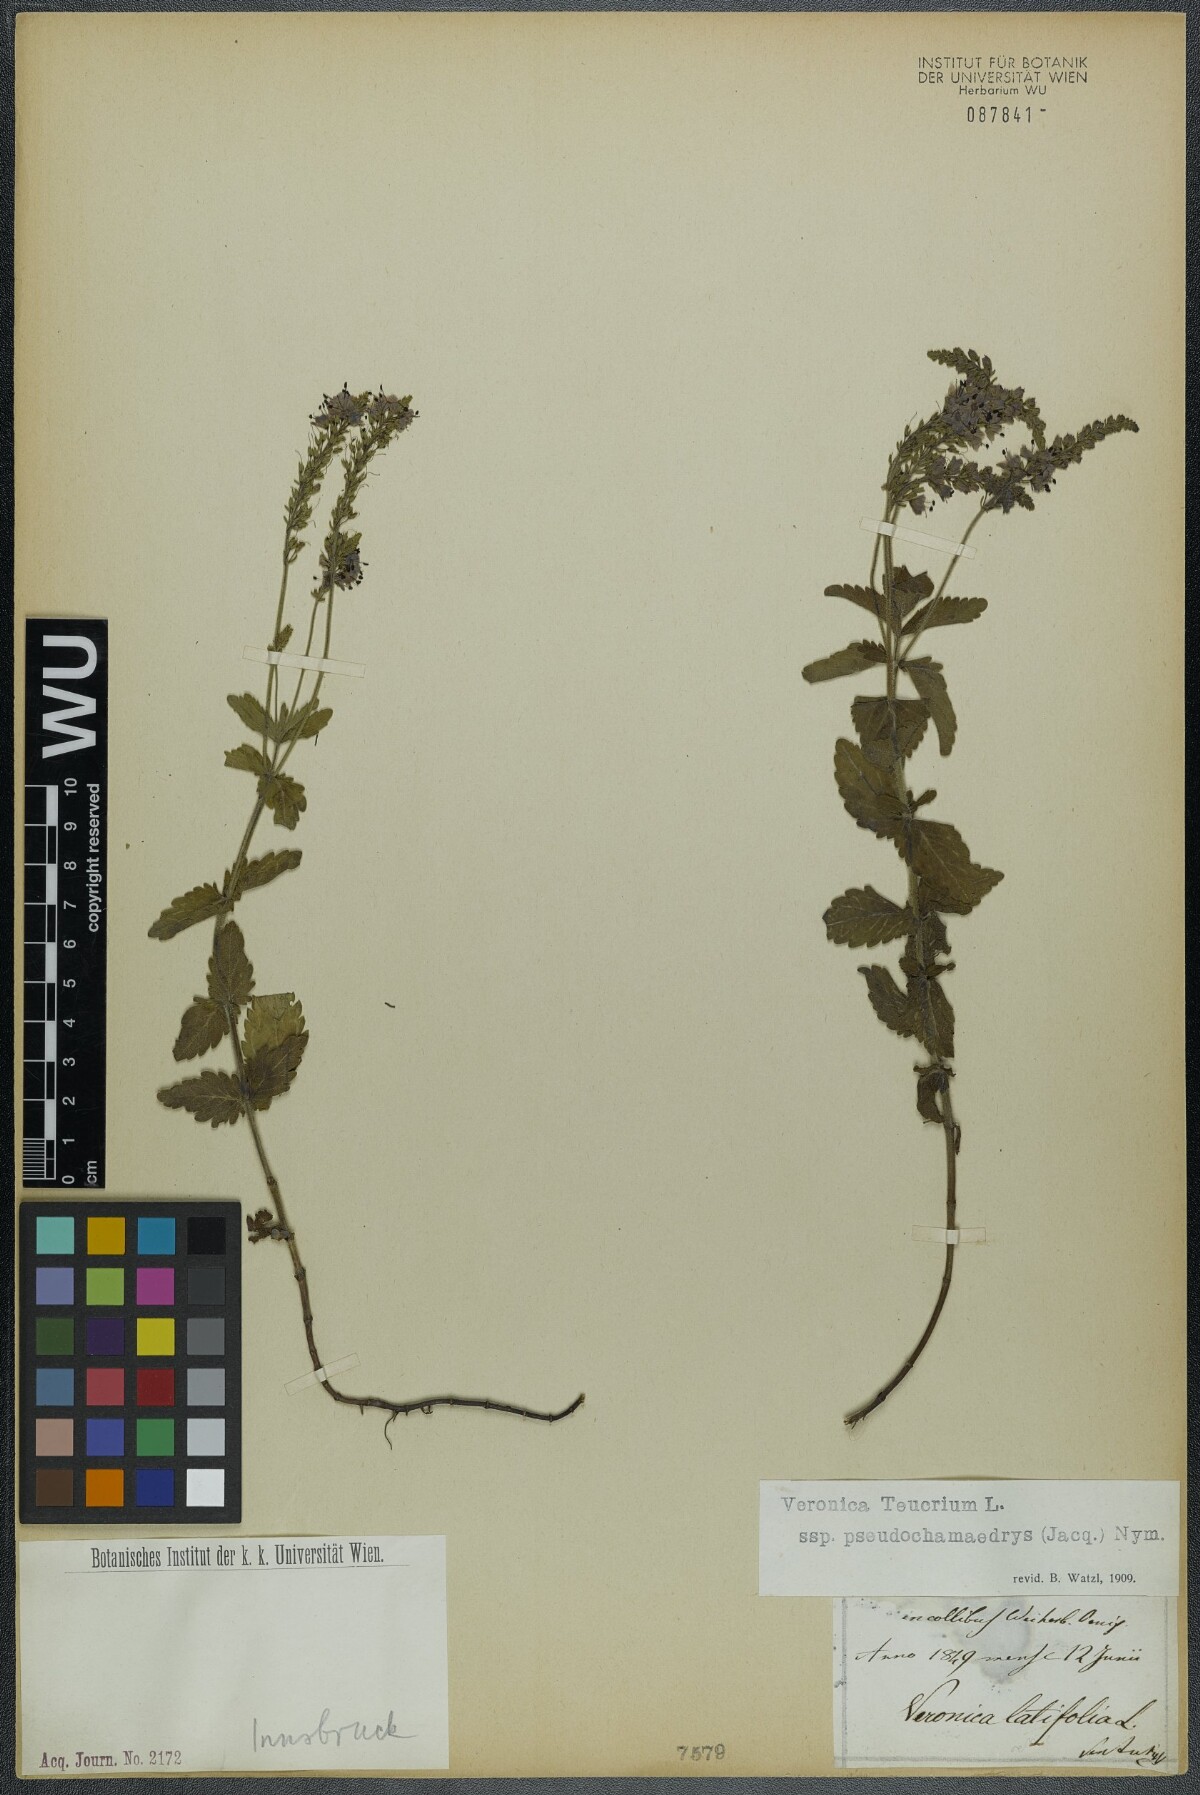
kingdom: Plantae
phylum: Tracheophyta
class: Magnoliopsida
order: Lamiales
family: Plantaginaceae
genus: Veronica
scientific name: Veronica teucrium
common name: Large speedwell
